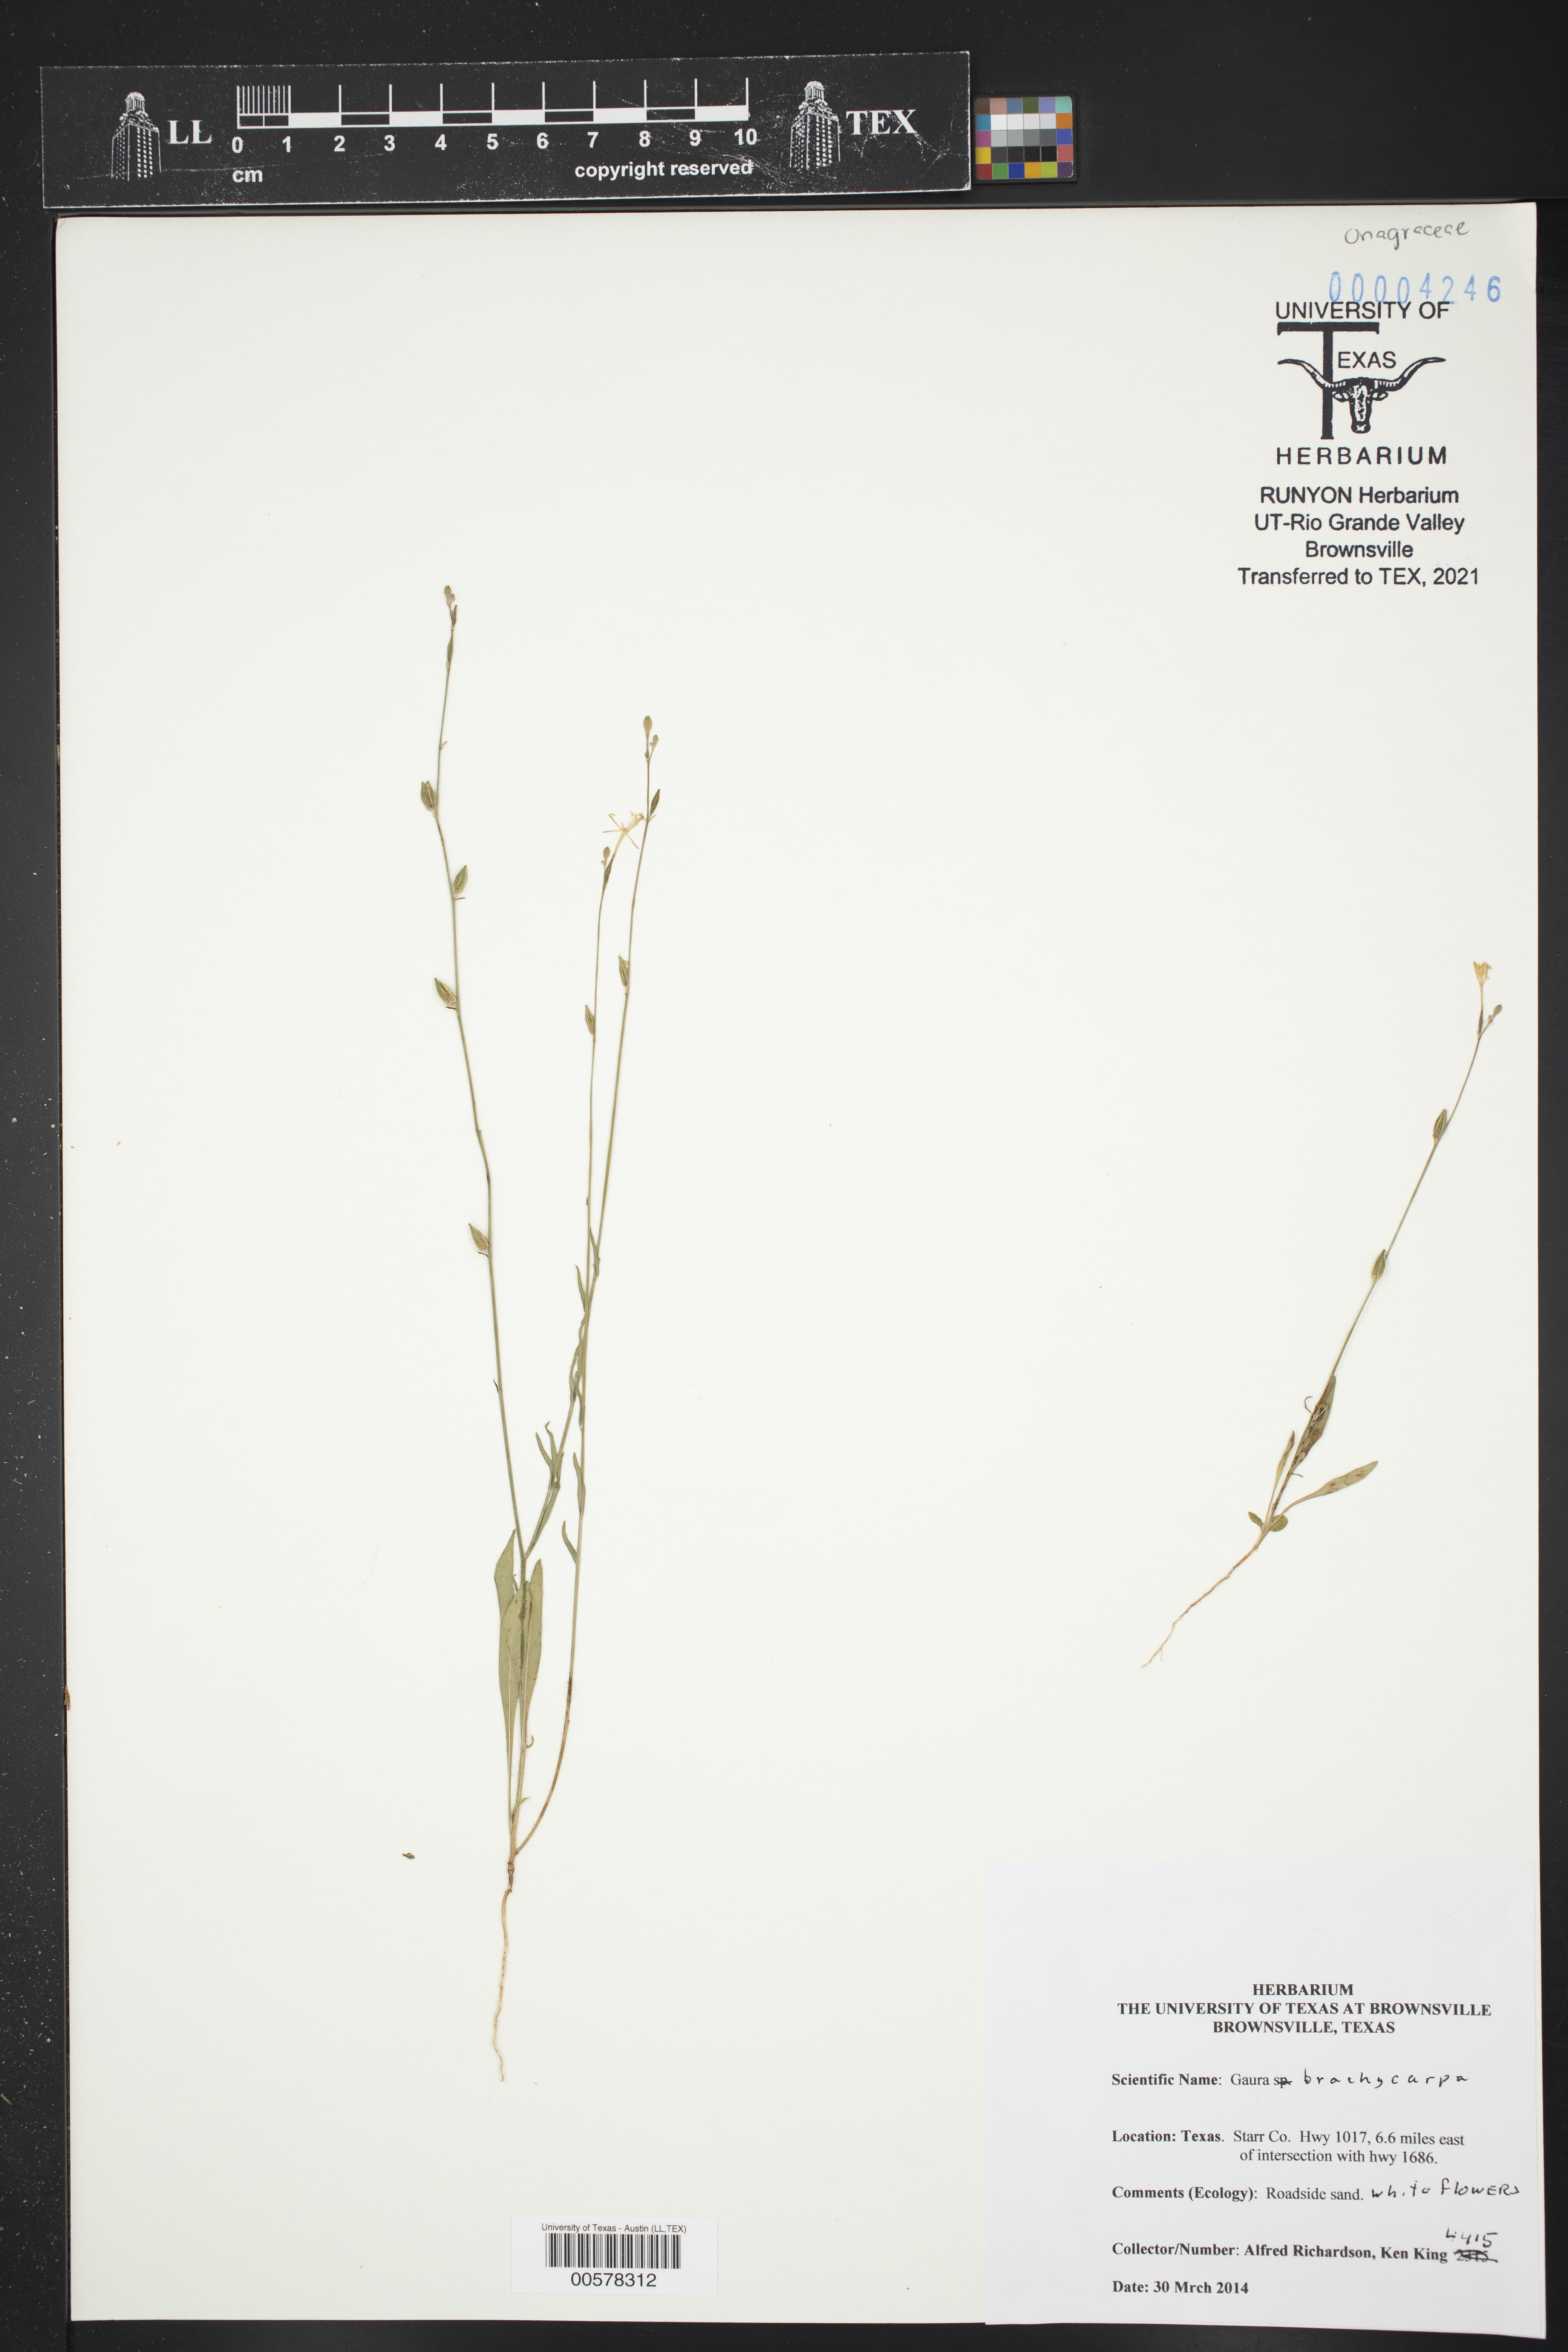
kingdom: Plantae
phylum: Tracheophyta
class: Magnoliopsida
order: Myrtales
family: Onagraceae
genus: Oenothera
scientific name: Oenothera patriciae
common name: Plains beeblossom
